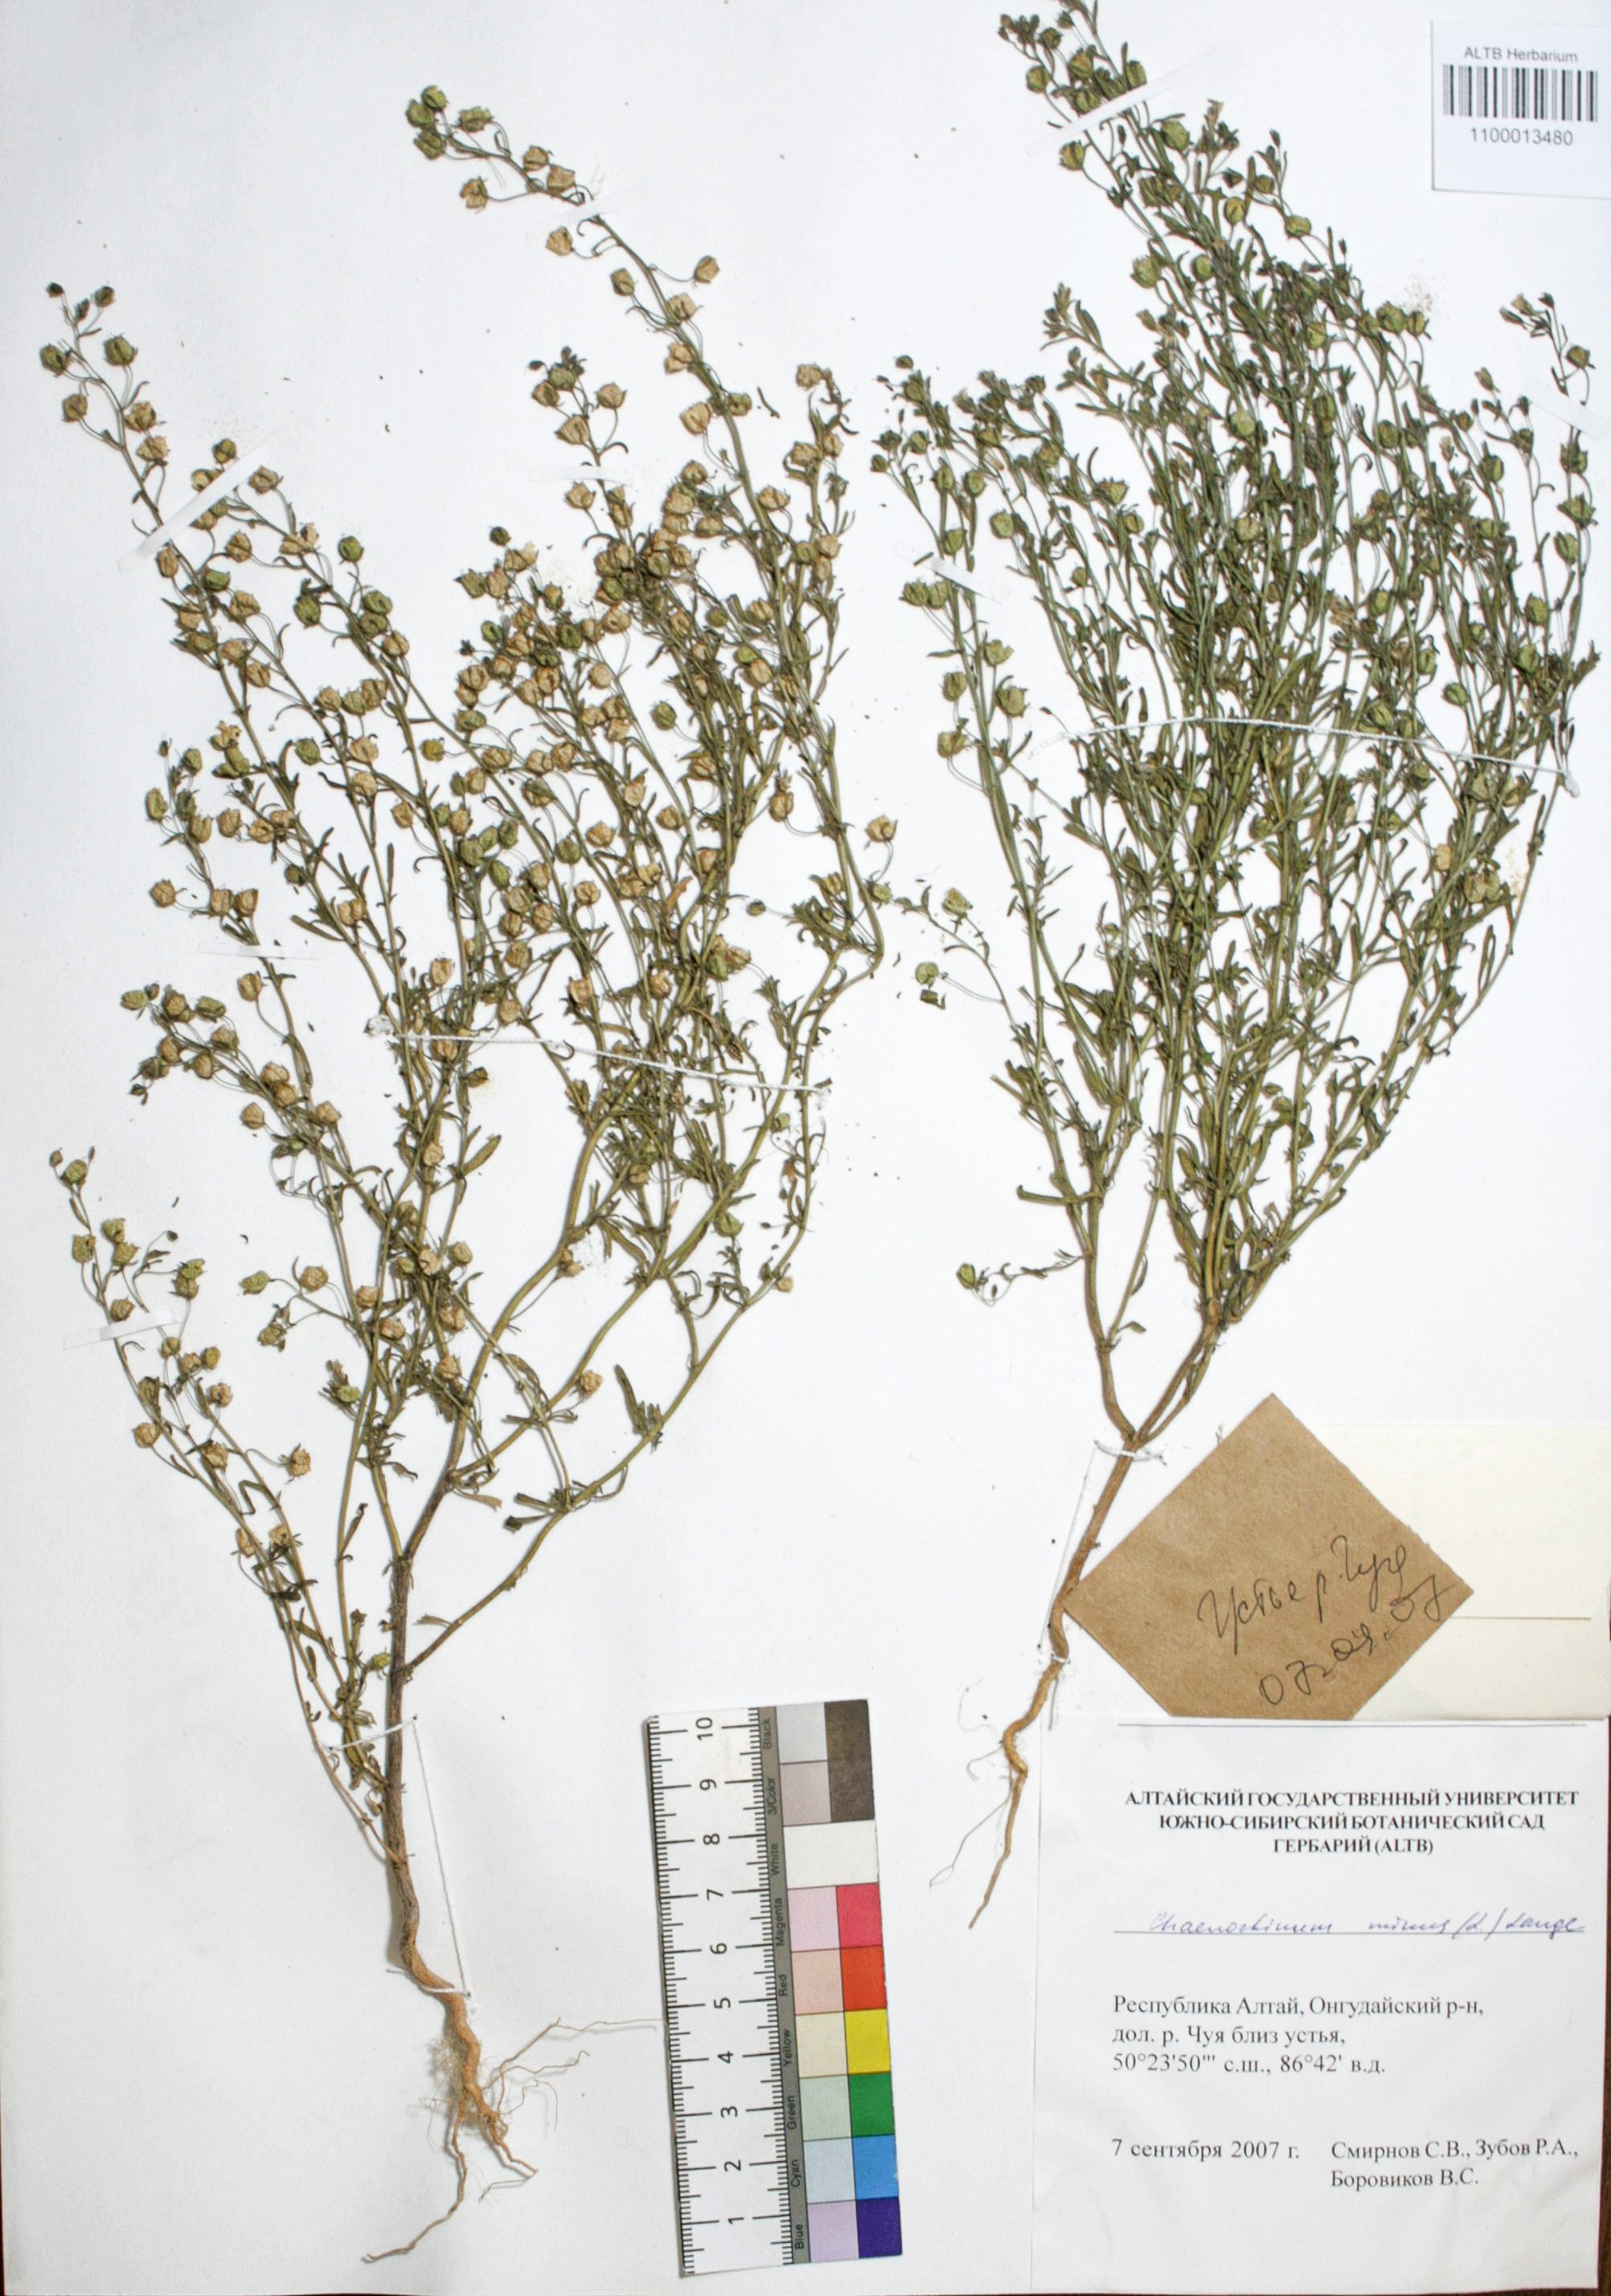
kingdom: Plantae
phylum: Tracheophyta
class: Magnoliopsida
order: Lamiales
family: Plantaginaceae
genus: Chaenorhinum
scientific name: Chaenorhinum minus
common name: Dwarf snapdragon
